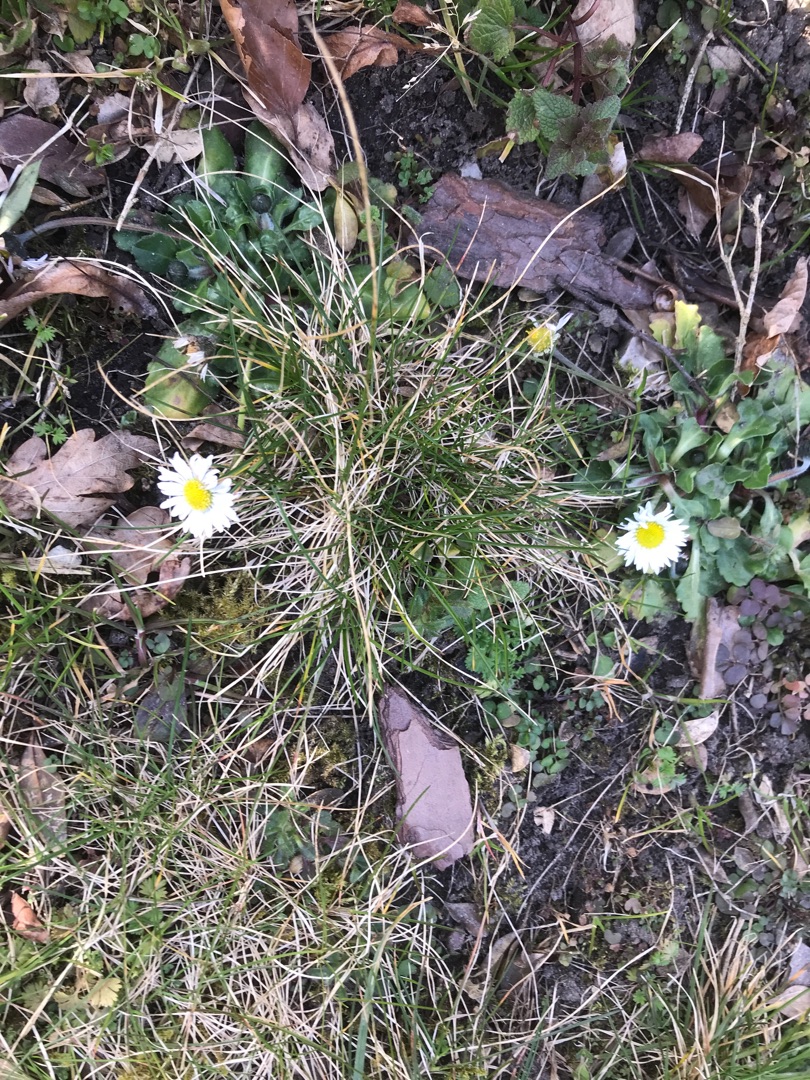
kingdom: Plantae
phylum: Tracheophyta
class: Magnoliopsida
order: Asterales
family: Asteraceae
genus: Bellis
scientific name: Bellis perennis
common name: Tusindfryd
